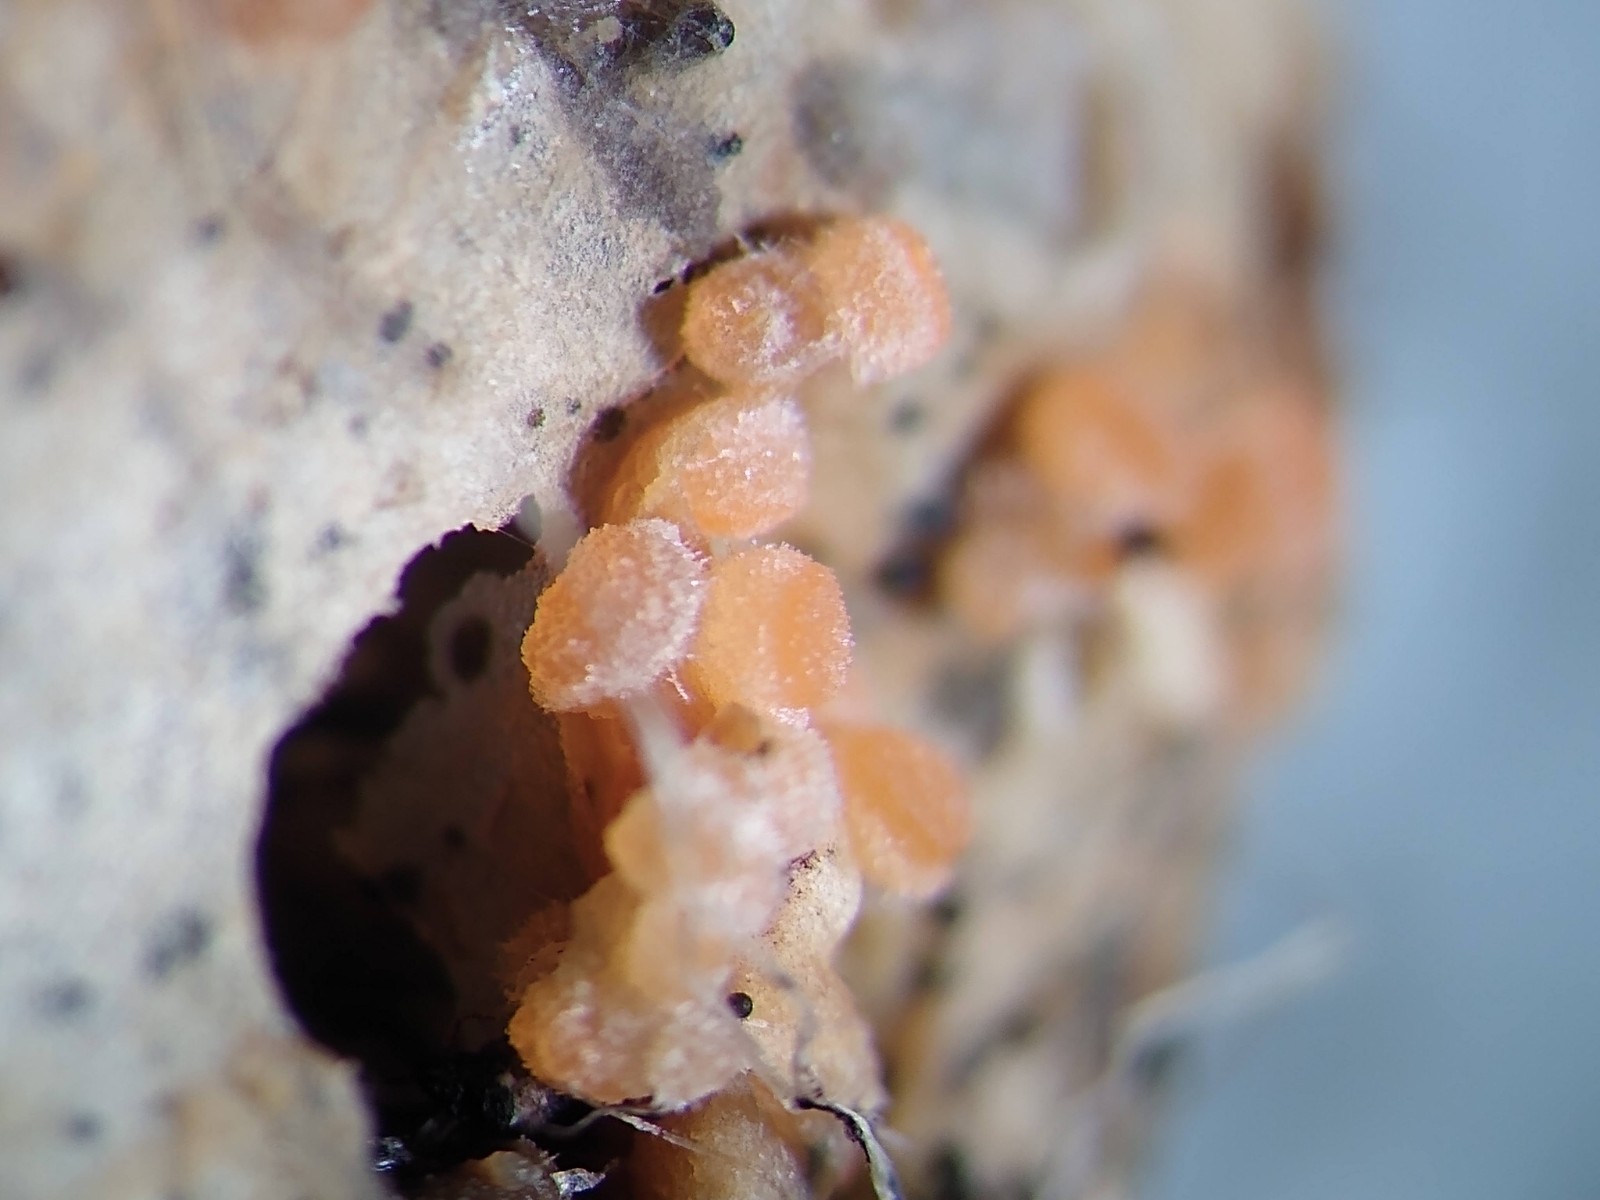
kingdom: Fungi
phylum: Ascomycota
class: Pezizomycetes
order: Pezizales
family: Pezizaceae
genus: Iodophanus
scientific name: Iodophanus carneus
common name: kødfarvet prikbæger
